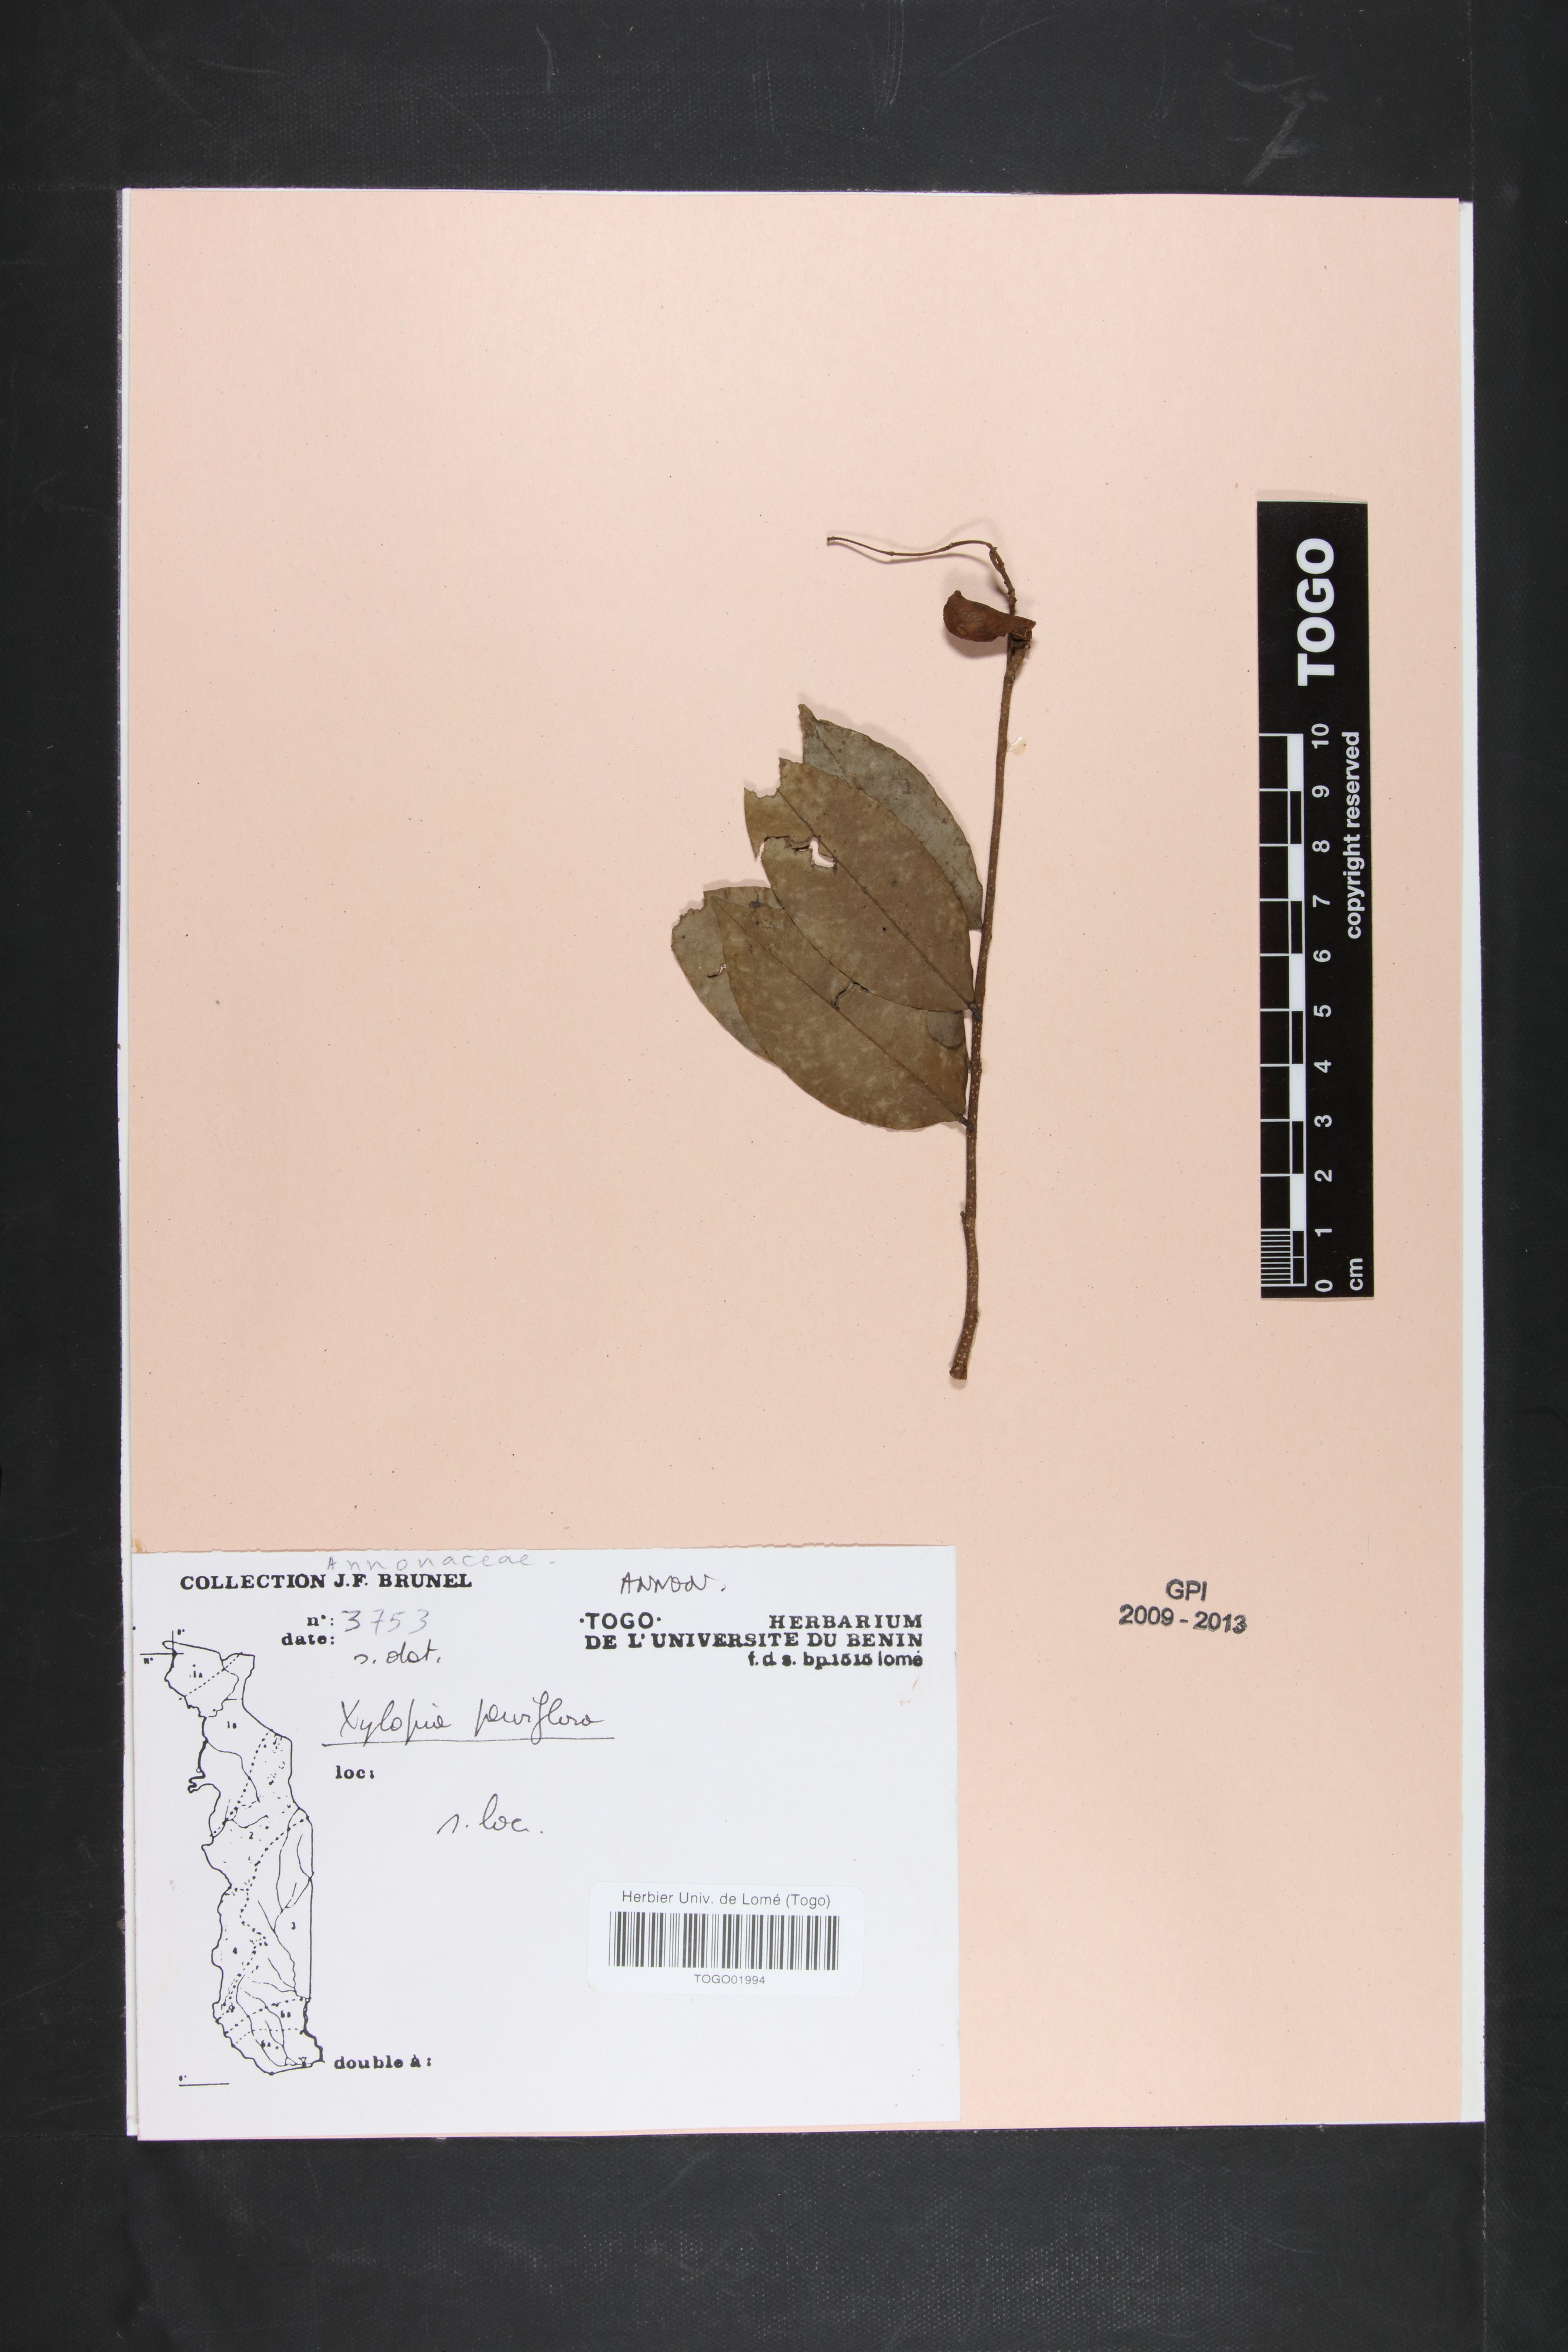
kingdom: Plantae
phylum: Tracheophyta
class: Magnoliopsida
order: Magnoliales
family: Annonaceae
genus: Xylopia
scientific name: Xylopia parviflora
